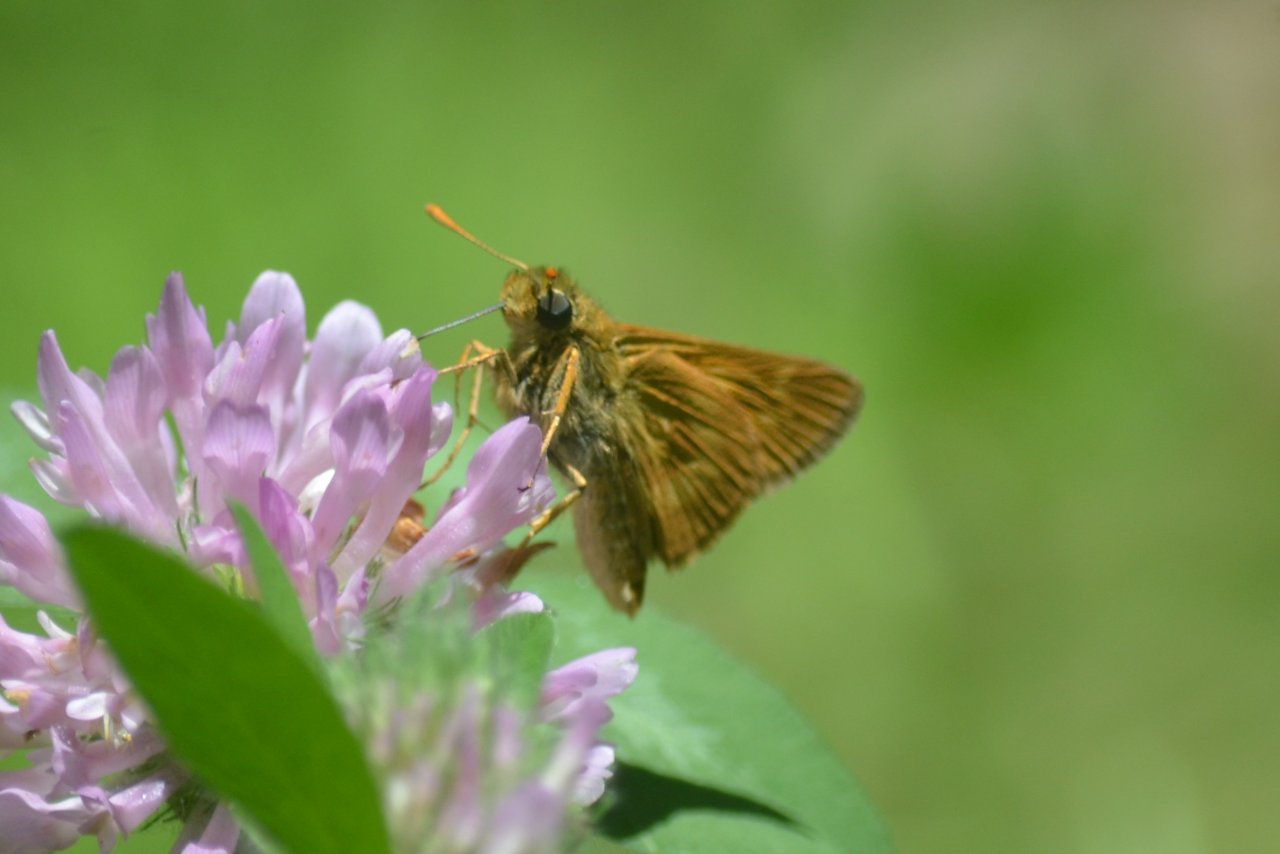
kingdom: Animalia
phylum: Arthropoda
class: Insecta
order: Lepidoptera
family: Hesperiidae
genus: Polites
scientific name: Polites
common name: Long Dash Skipper
